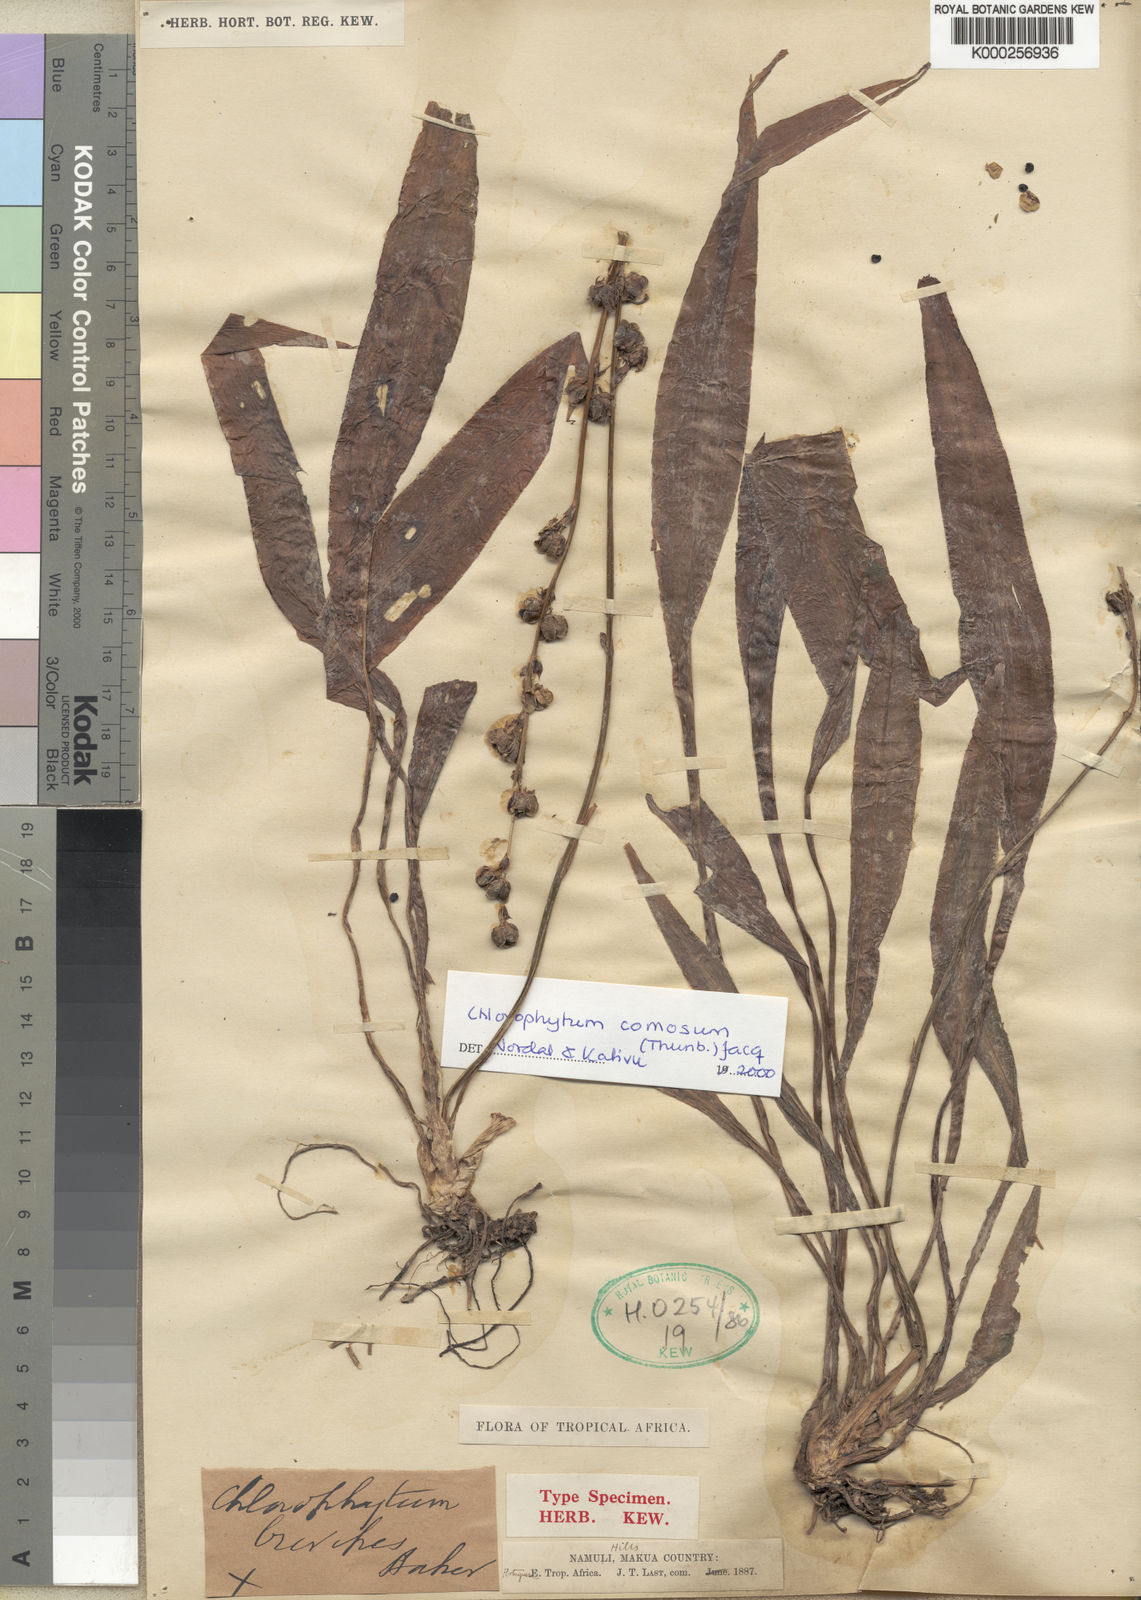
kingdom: Plantae
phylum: Tracheophyta
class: Liliopsida
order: Asparagales
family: Asparagaceae
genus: Chlorophytum
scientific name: Chlorophytum comosum
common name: Spider plant
